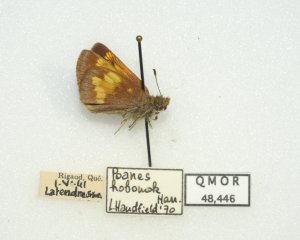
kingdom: Animalia
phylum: Arthropoda
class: Insecta
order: Lepidoptera
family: Hesperiidae
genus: Lon
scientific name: Lon hobomok
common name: Hobomok Skipper
